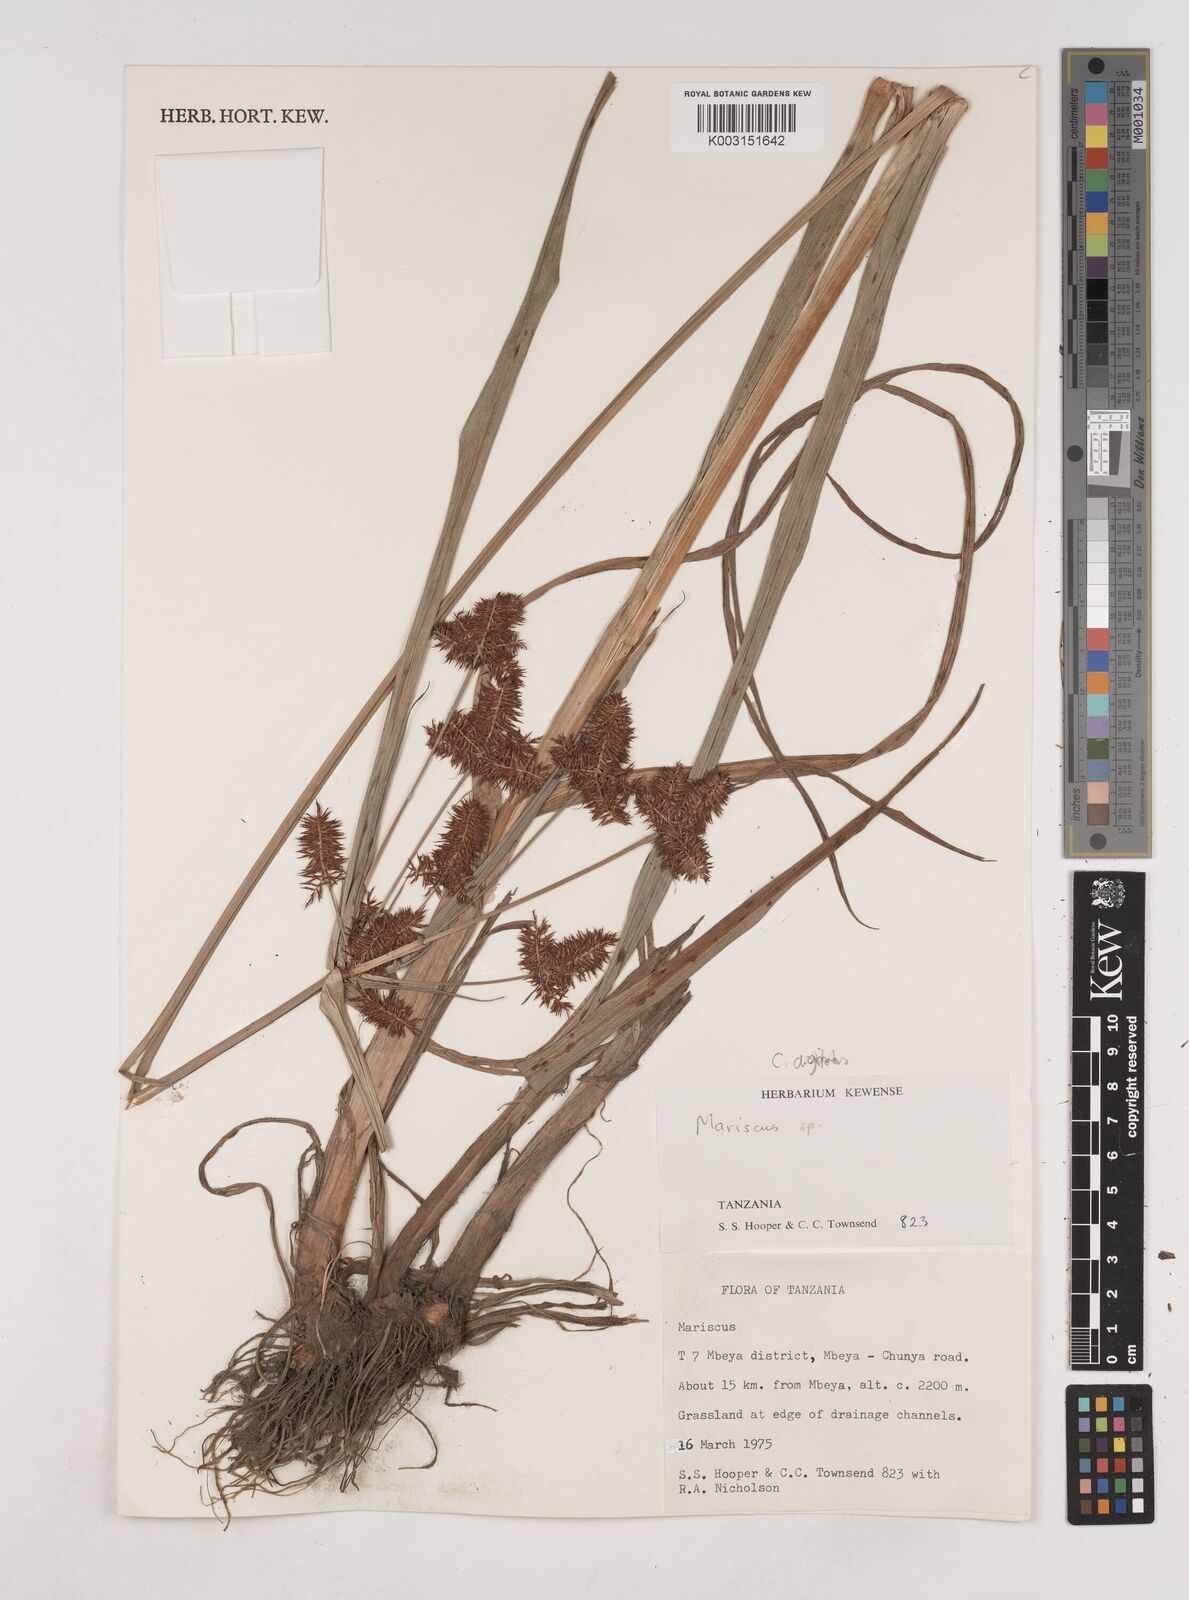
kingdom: Plantae
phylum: Tracheophyta
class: Liliopsida
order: Poales
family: Cyperaceae
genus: Cyperus
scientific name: Cyperus digitatus
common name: Finger flatsedge
